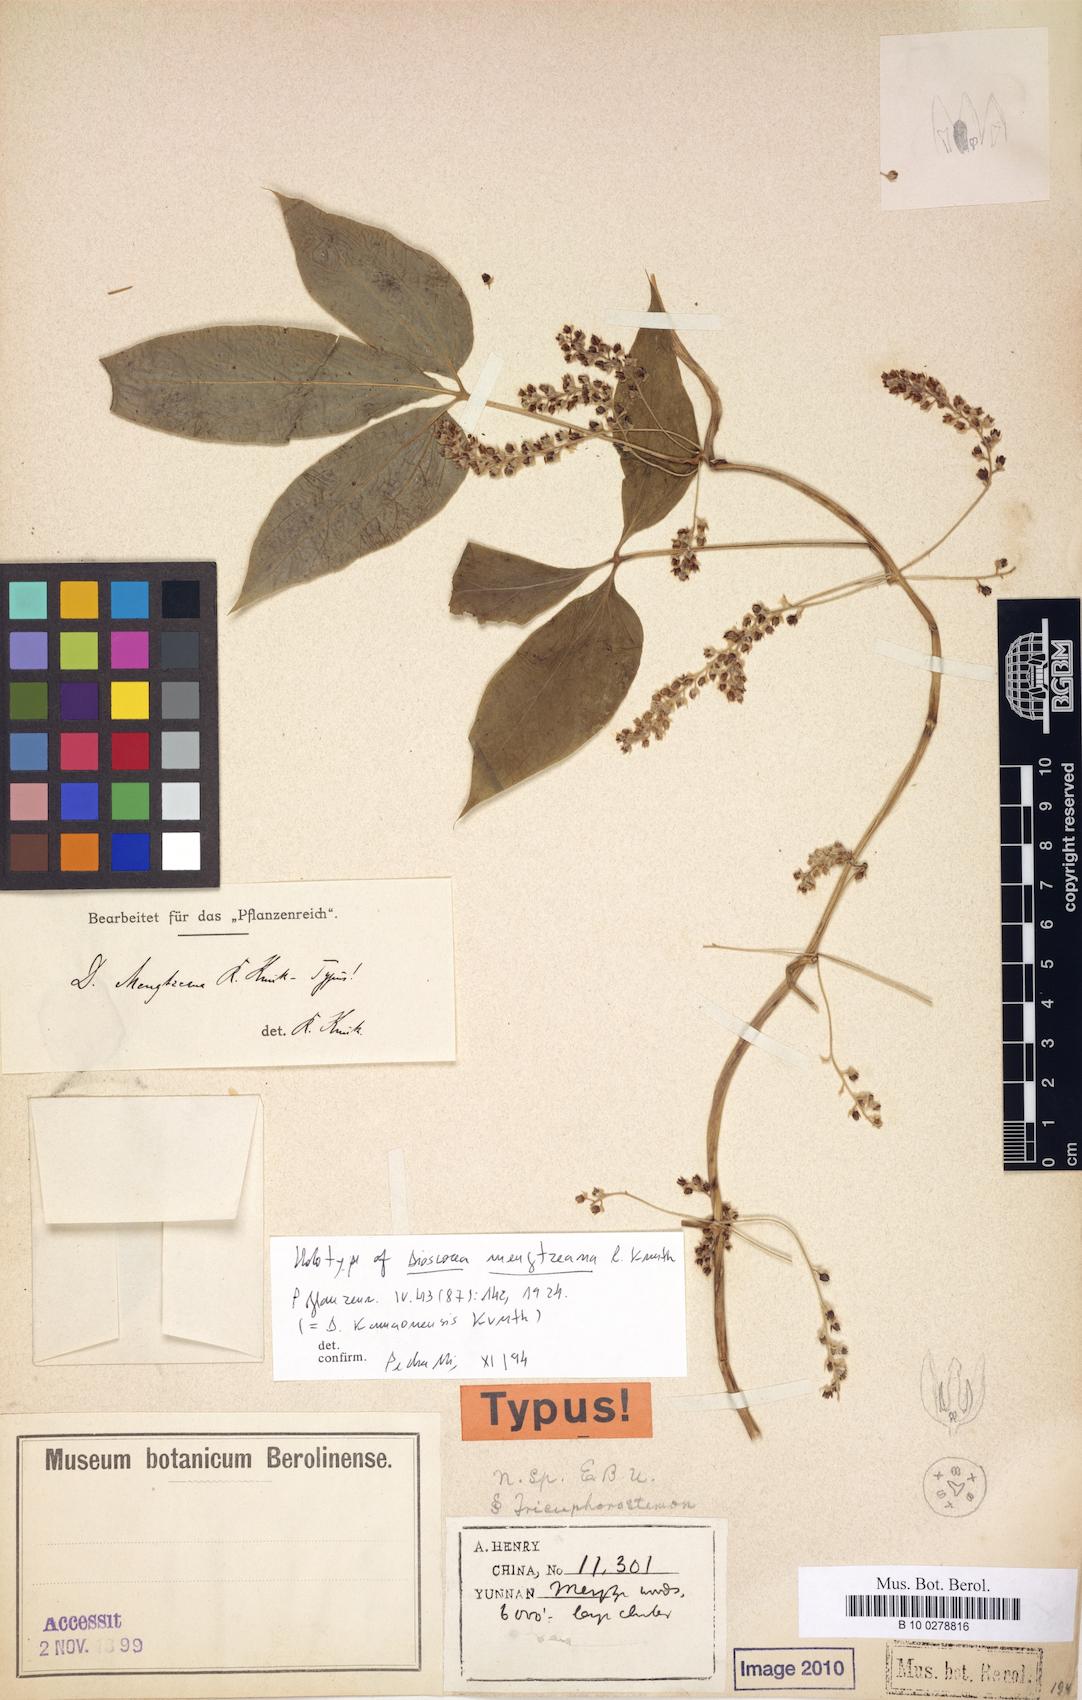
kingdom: Plantae
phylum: Tracheophyta
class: Liliopsida
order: Dioscoreales
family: Dioscoreaceae
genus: Dioscorea
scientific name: Dioscorea kamoonensis
